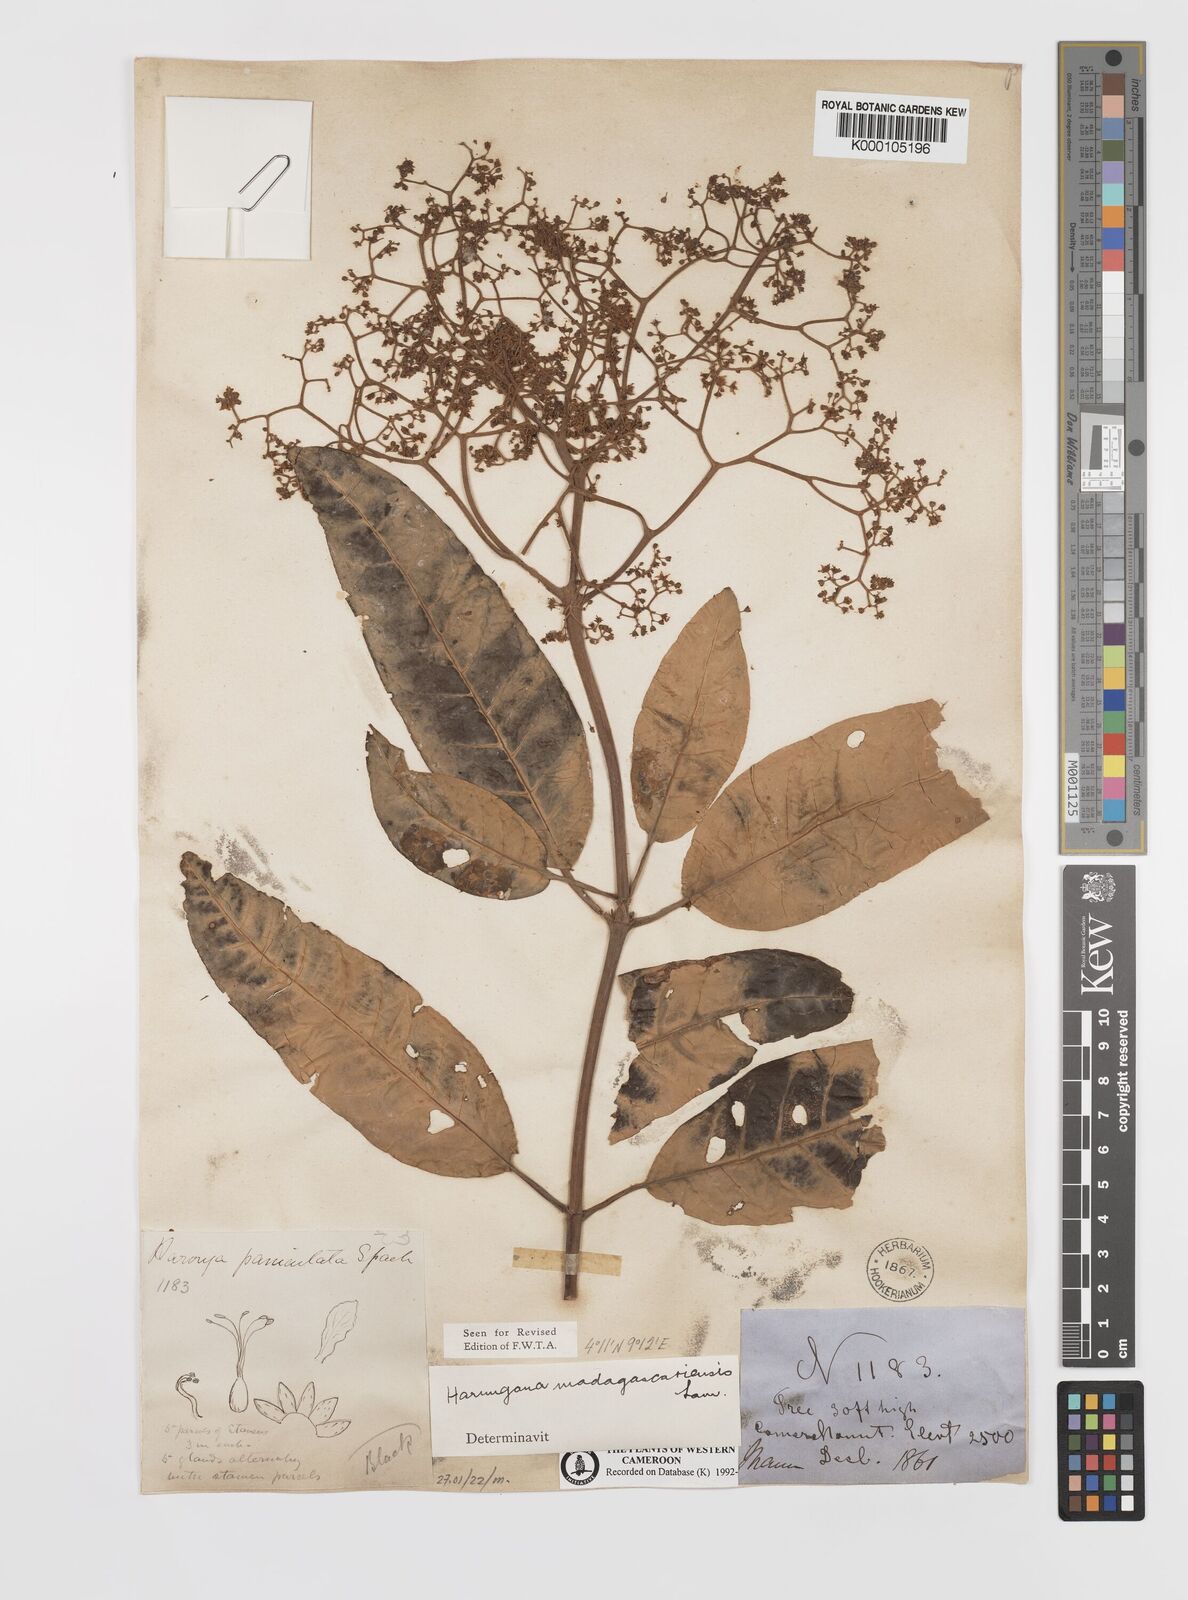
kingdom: Plantae
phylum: Tracheophyta
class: Magnoliopsida
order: Malpighiales
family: Hypericaceae
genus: Harungana
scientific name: Harungana madagascariensis
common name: Orange milktree
